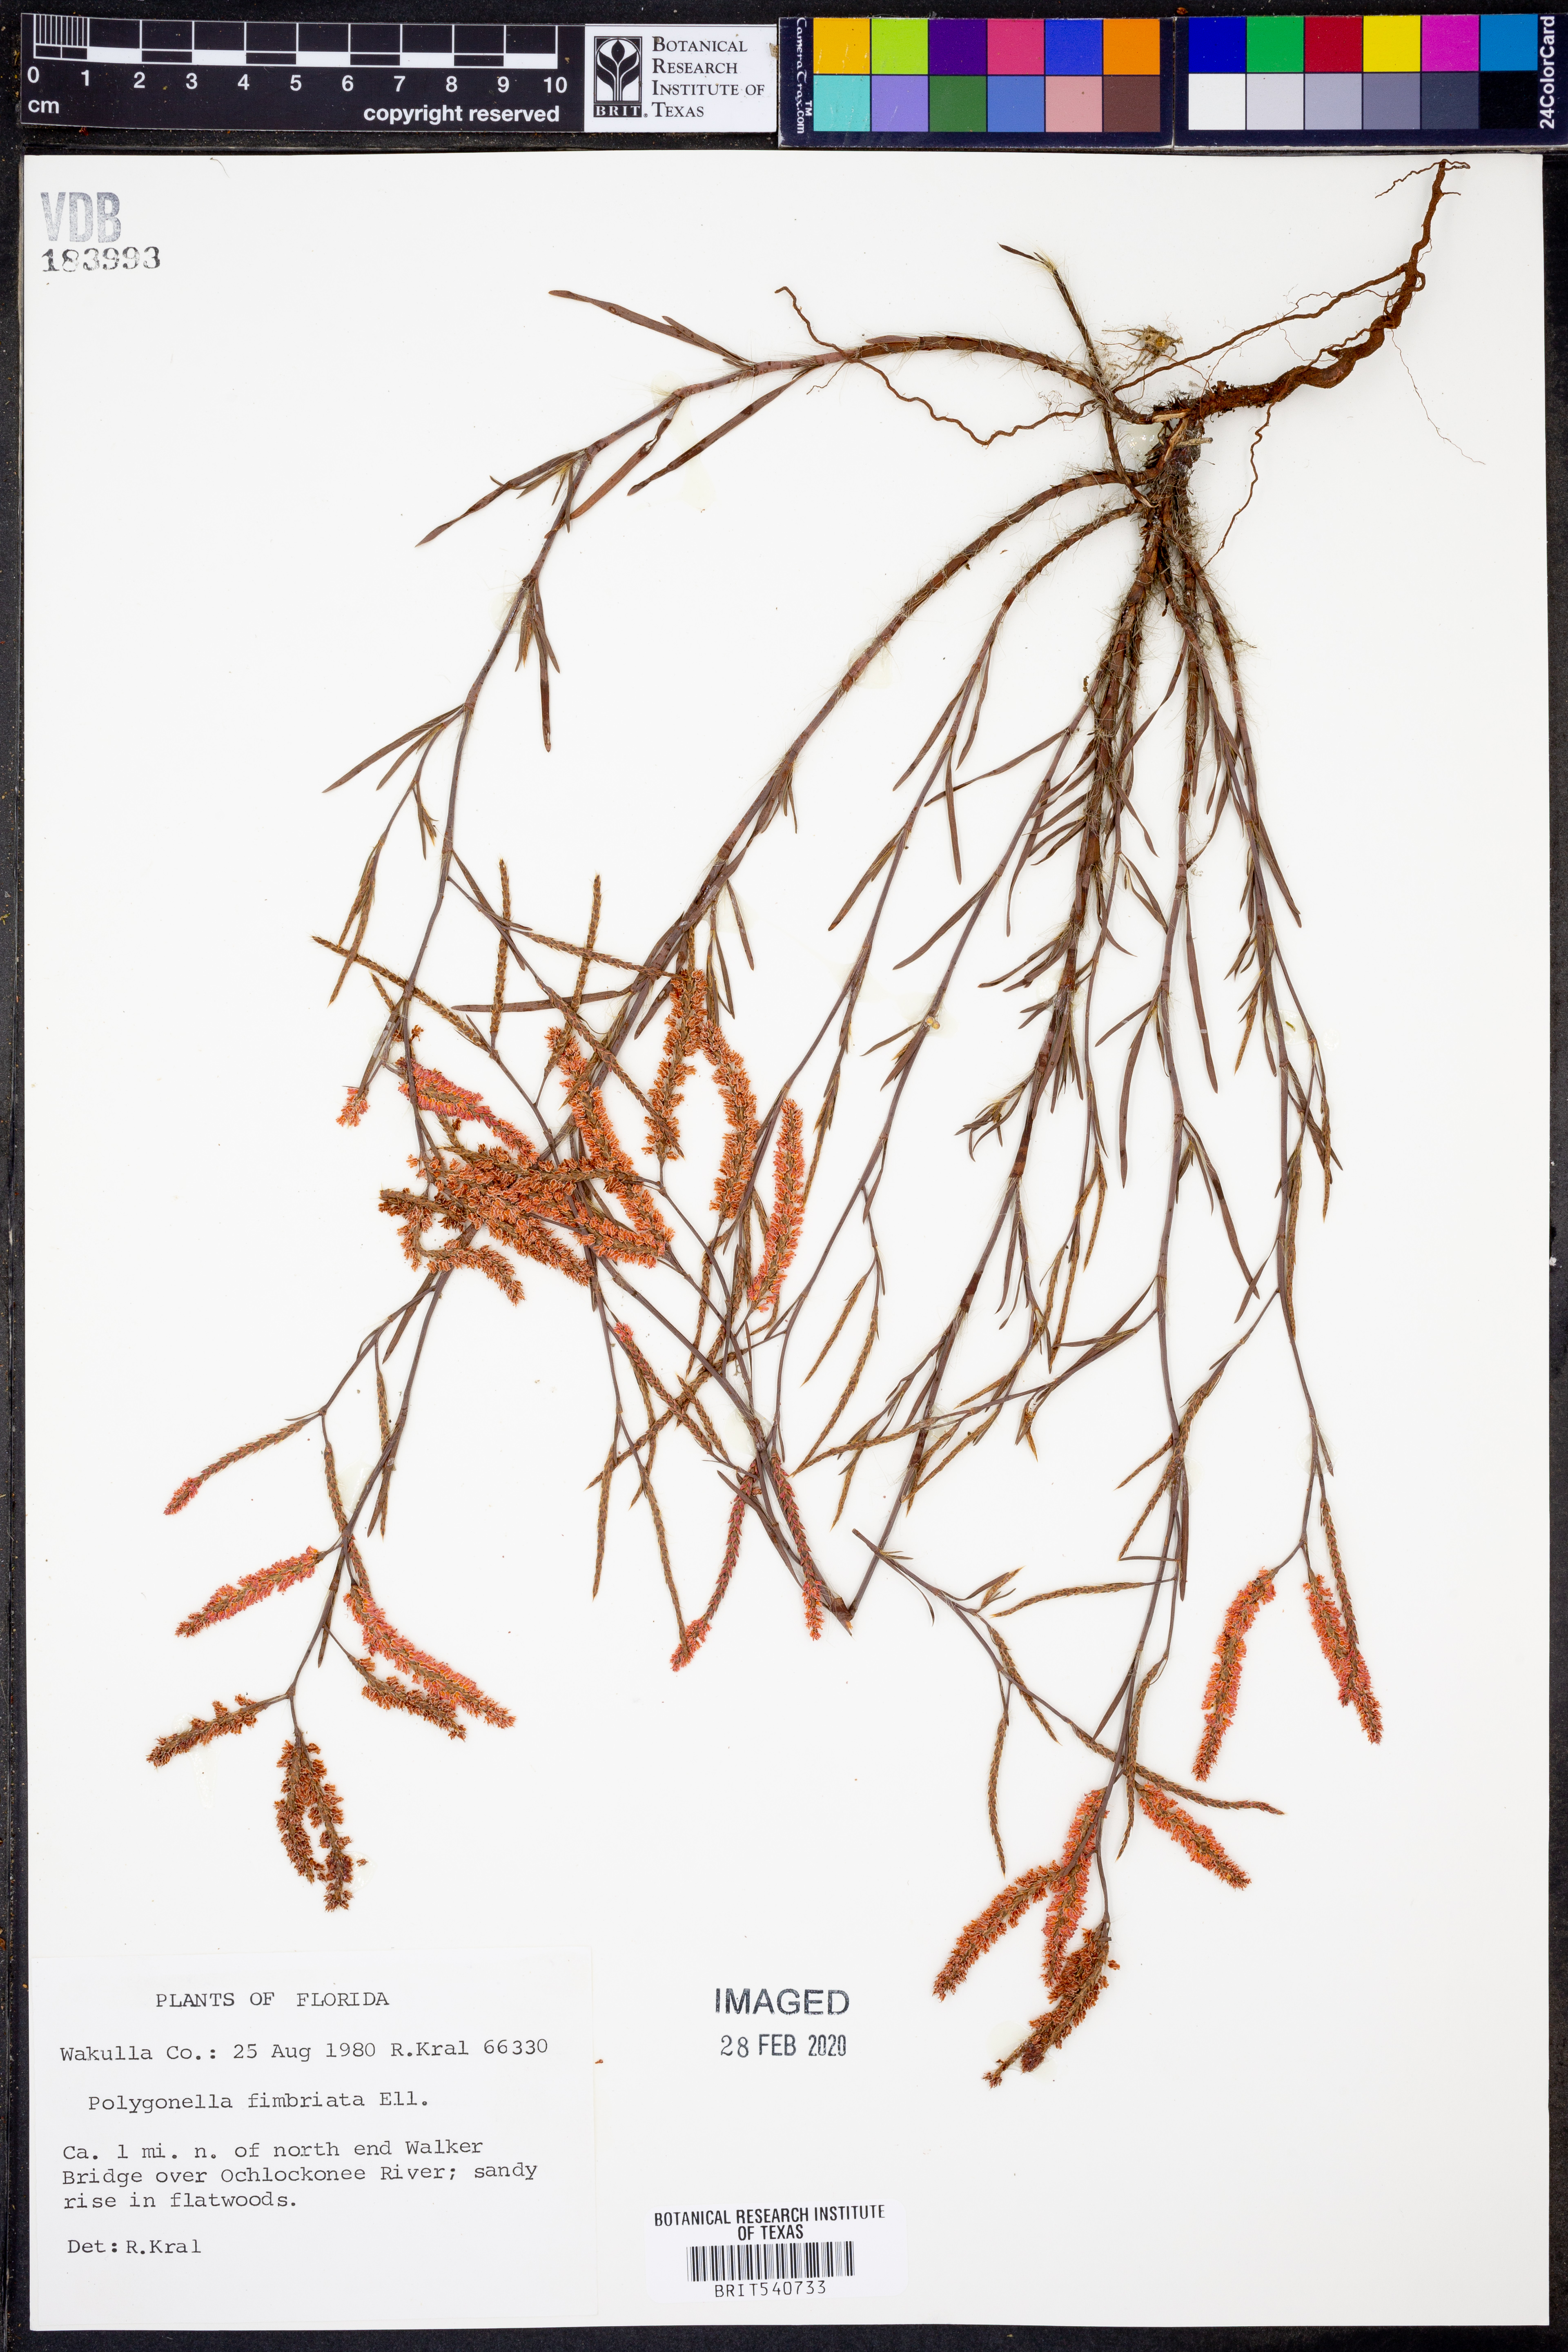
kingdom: Plantae
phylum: Tracheophyta
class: Magnoliopsida
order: Caryophyllales
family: Polygonaceae
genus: Polygonella
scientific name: Polygonella fimbriata
